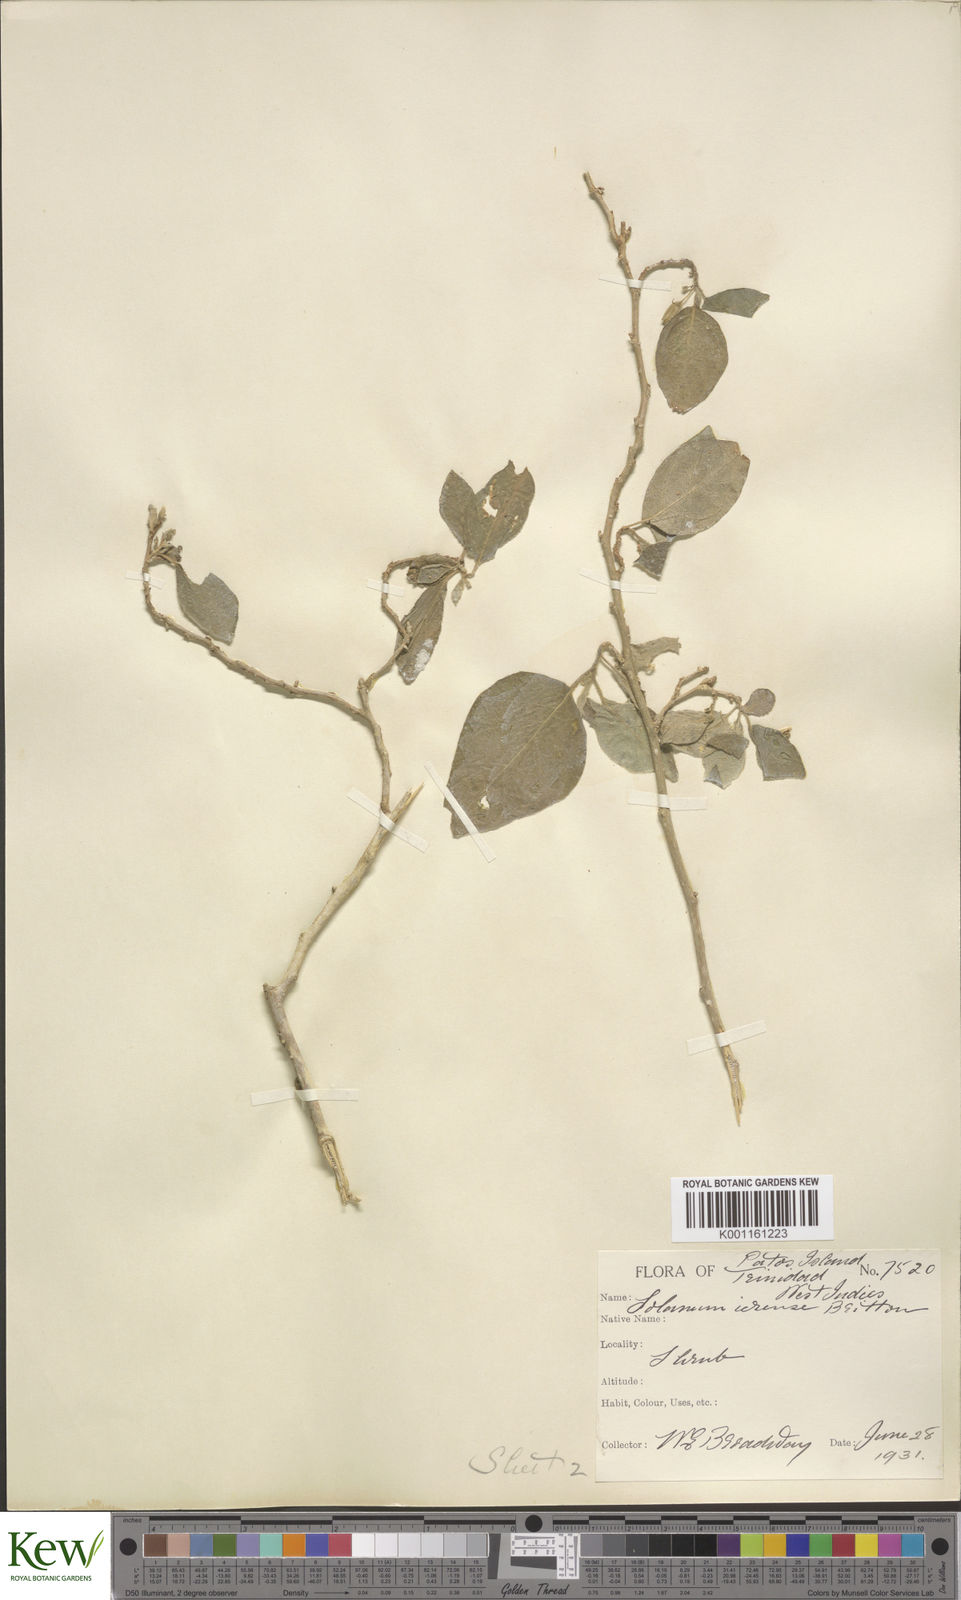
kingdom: Plantae
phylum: Tracheophyta
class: Magnoliopsida
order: Solanales
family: Solanaceae
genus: Solanum
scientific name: Solanum gardneri
